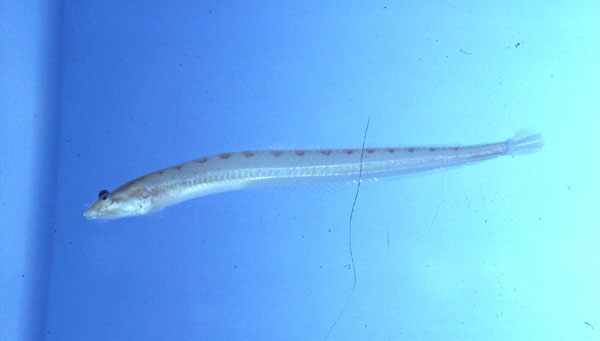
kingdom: Animalia
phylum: Chordata
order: Perciformes
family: Creediidae
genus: Chalixodytes
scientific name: Chalixodytes chameleontoculis
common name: Sand dart
